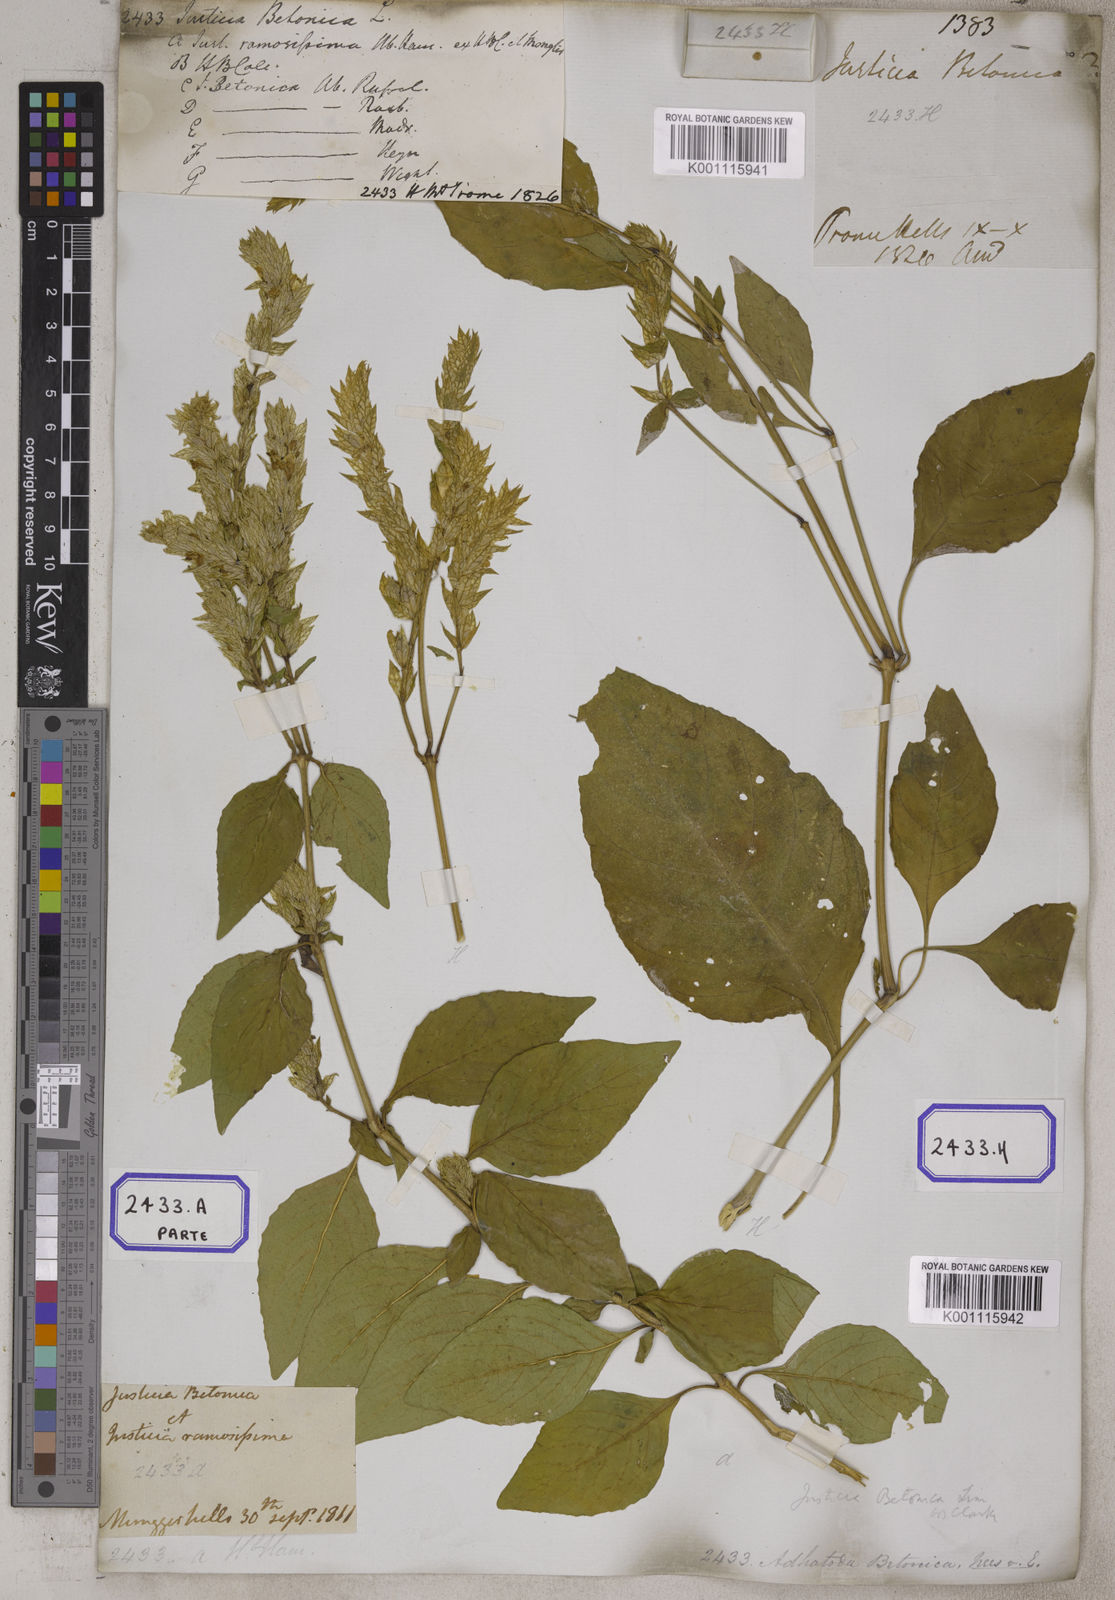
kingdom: Plantae
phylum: Tracheophyta
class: Magnoliopsida
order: Lamiales
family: Acanthaceae
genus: Nicoteba
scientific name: Nicoteba betonica
